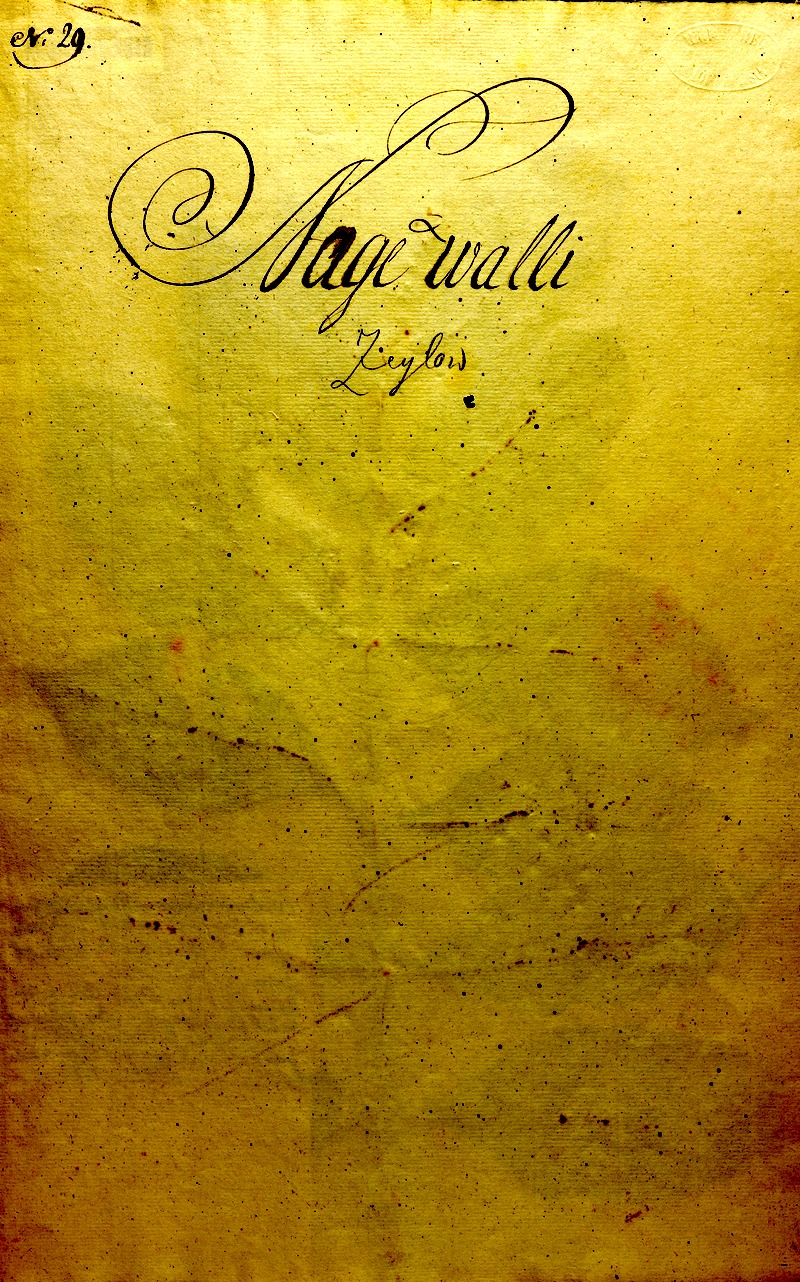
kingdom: Plantae
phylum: Tracheophyta
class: Magnoliopsida
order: Lamiales
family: Acanthaceae
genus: Graptophyllum
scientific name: Graptophyllum pictum
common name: Caricature-plant
